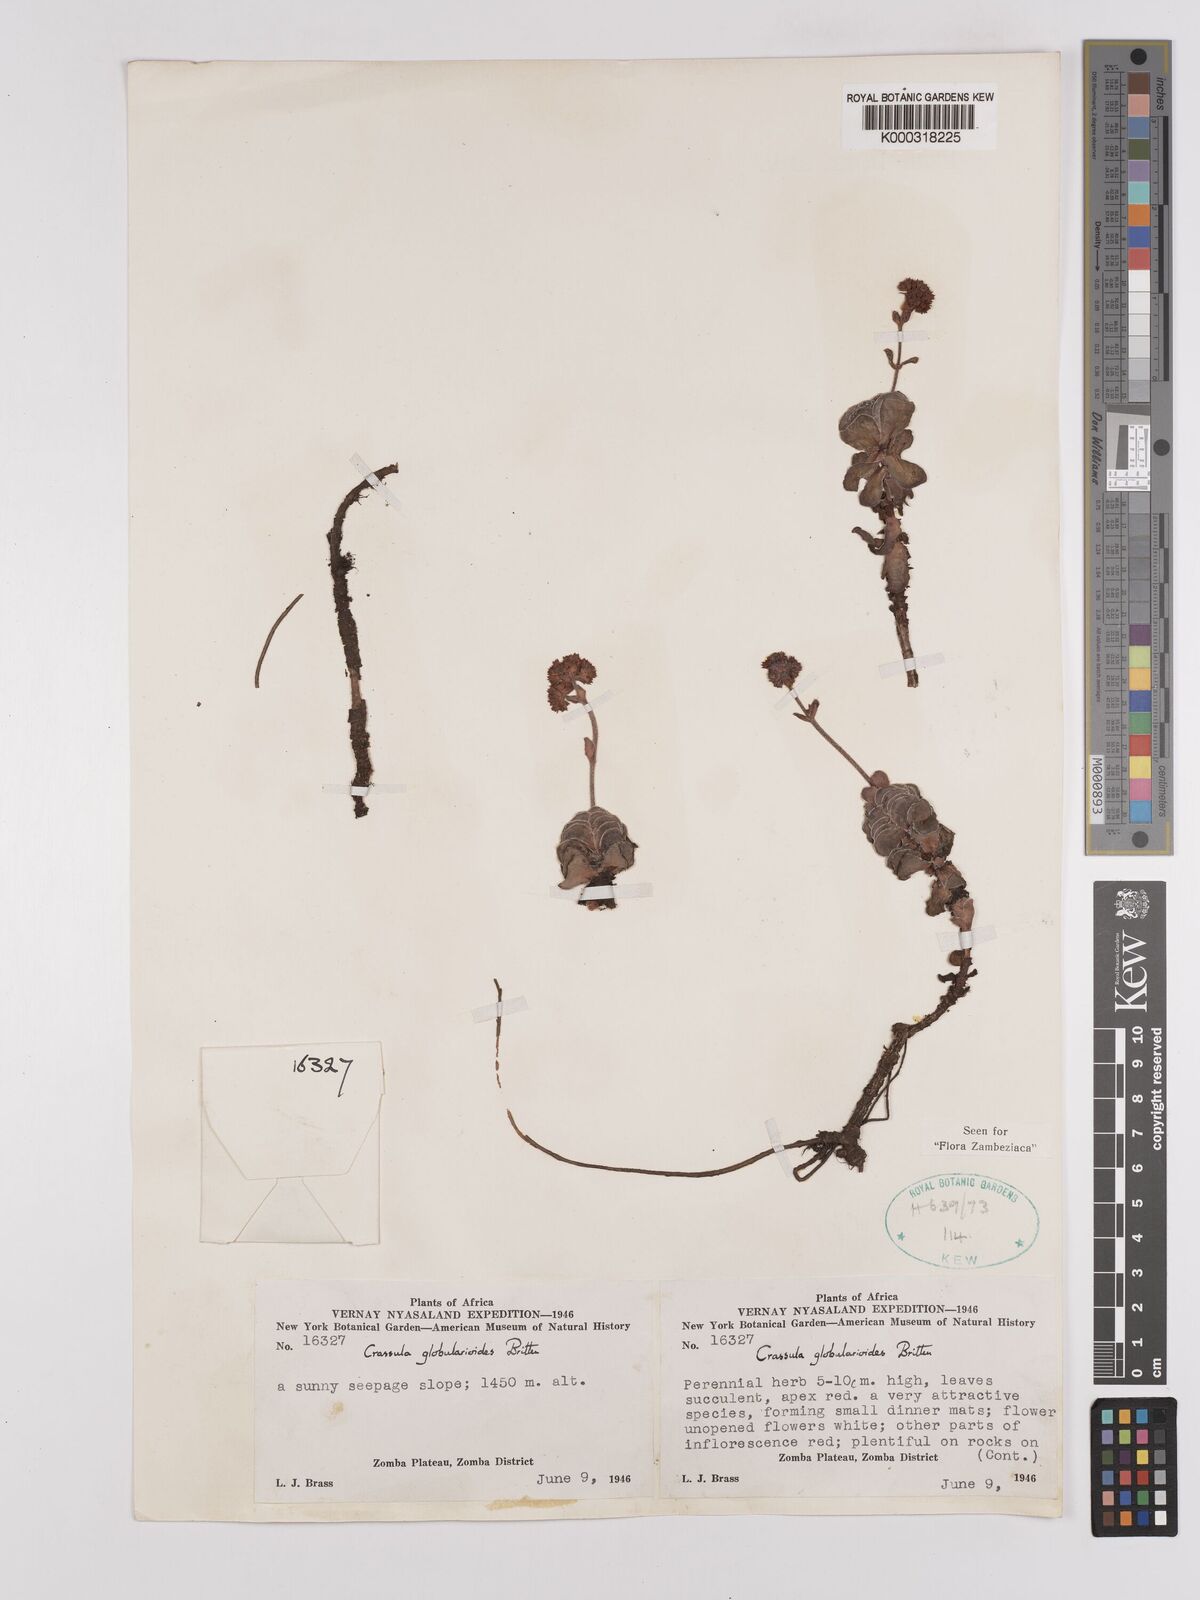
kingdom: Plantae
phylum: Tracheophyta
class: Magnoliopsida
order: Saxifragales
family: Crassulaceae
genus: Crassula
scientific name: Crassula globularioides
